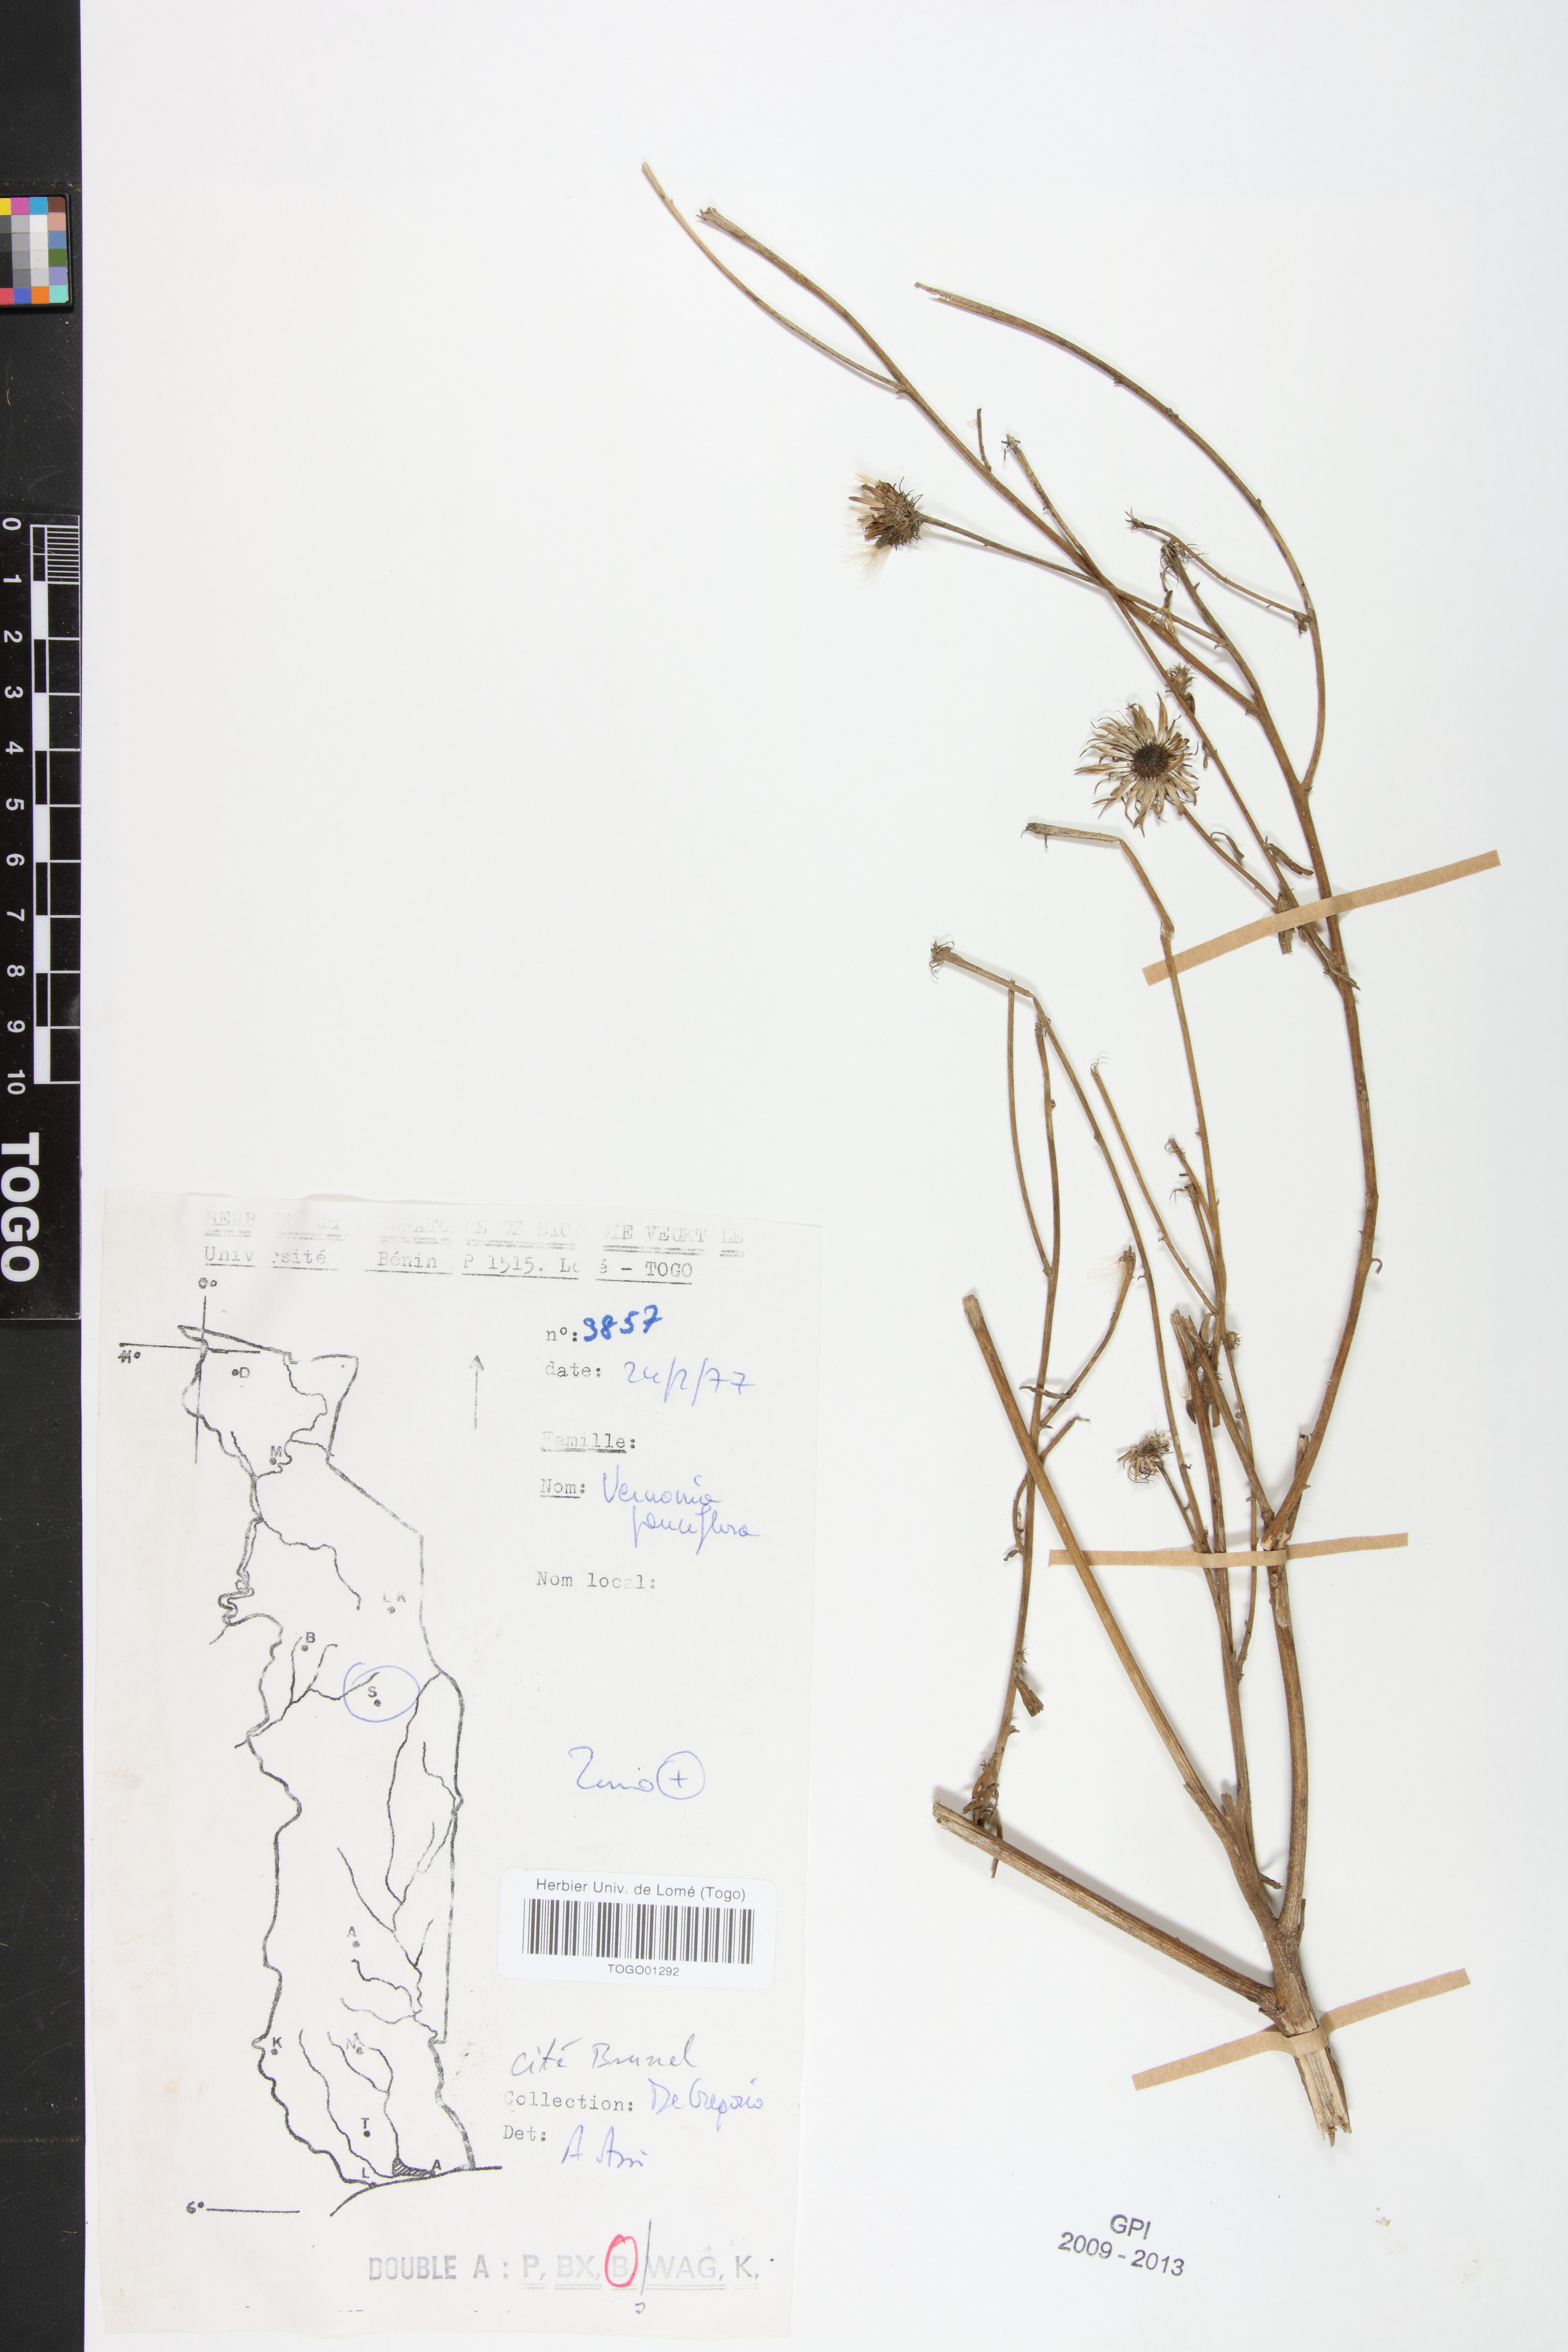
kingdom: Plantae
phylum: Tracheophyta
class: Magnoliopsida
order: Asterales
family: Asteraceae
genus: Vernonia
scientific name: Vernonia galamensis
